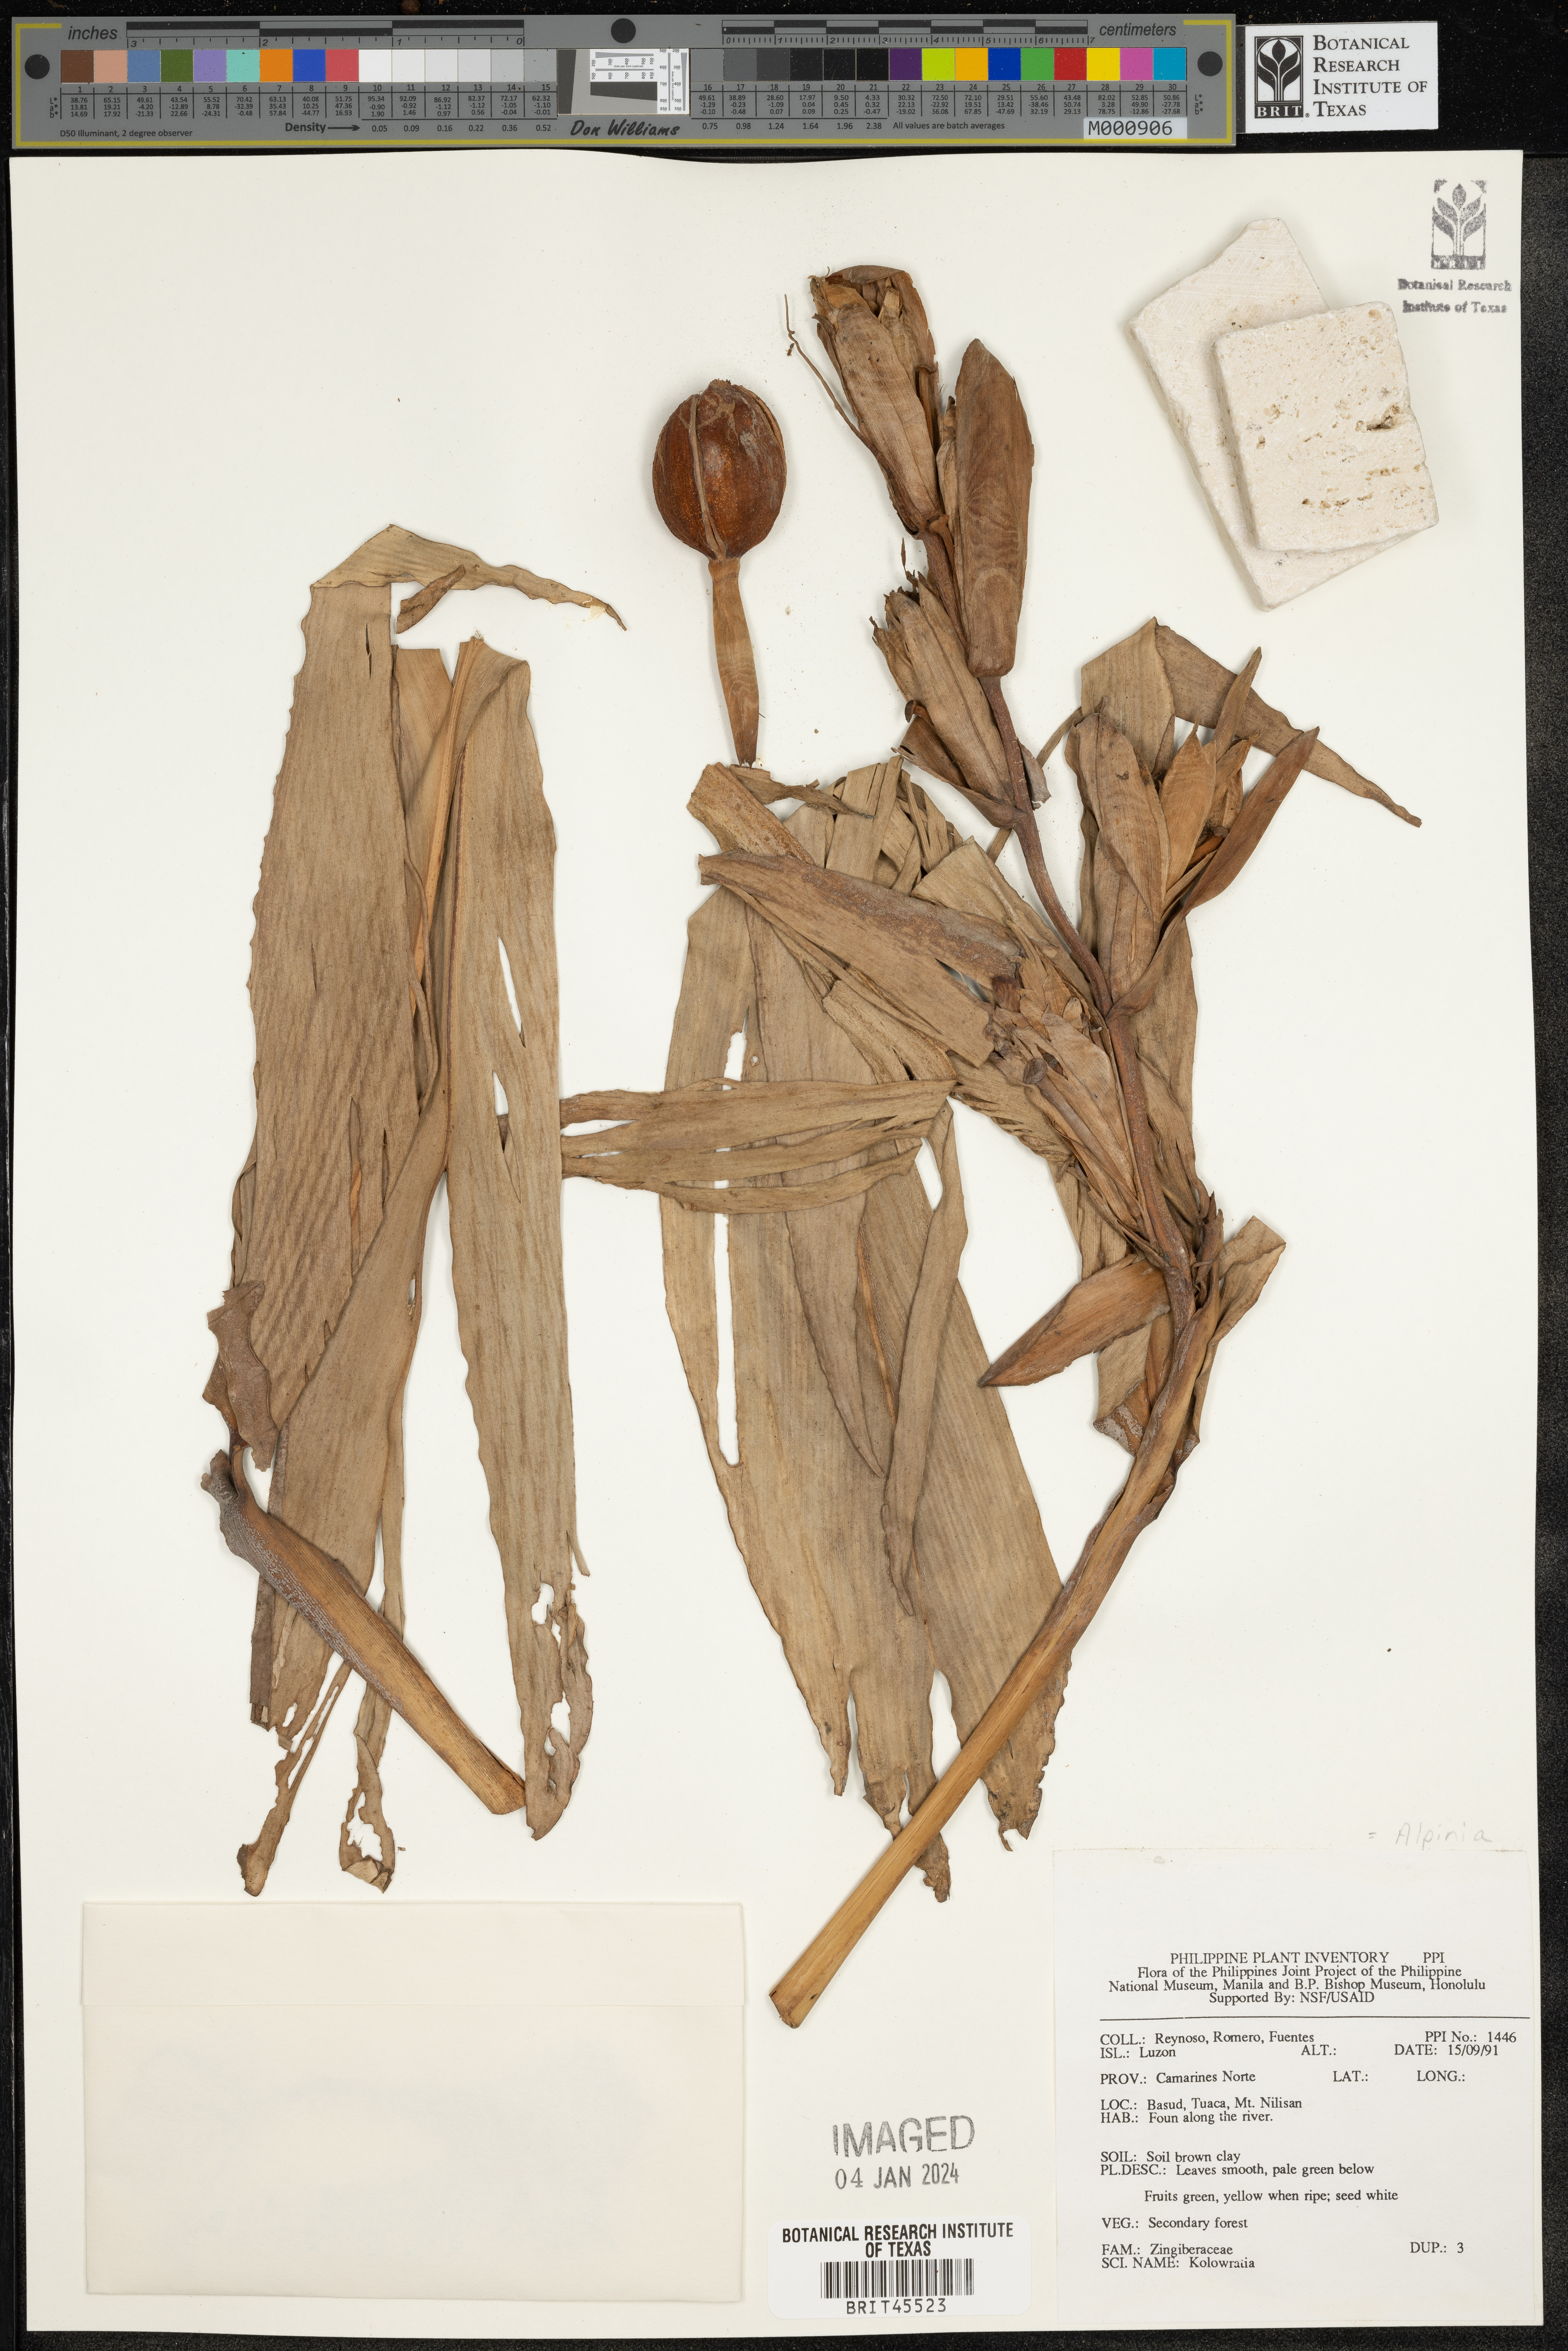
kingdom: Plantae
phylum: Tracheophyta
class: Liliopsida
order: Zingiberales
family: Zingiberaceae
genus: Alpinia
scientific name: Alpinia
